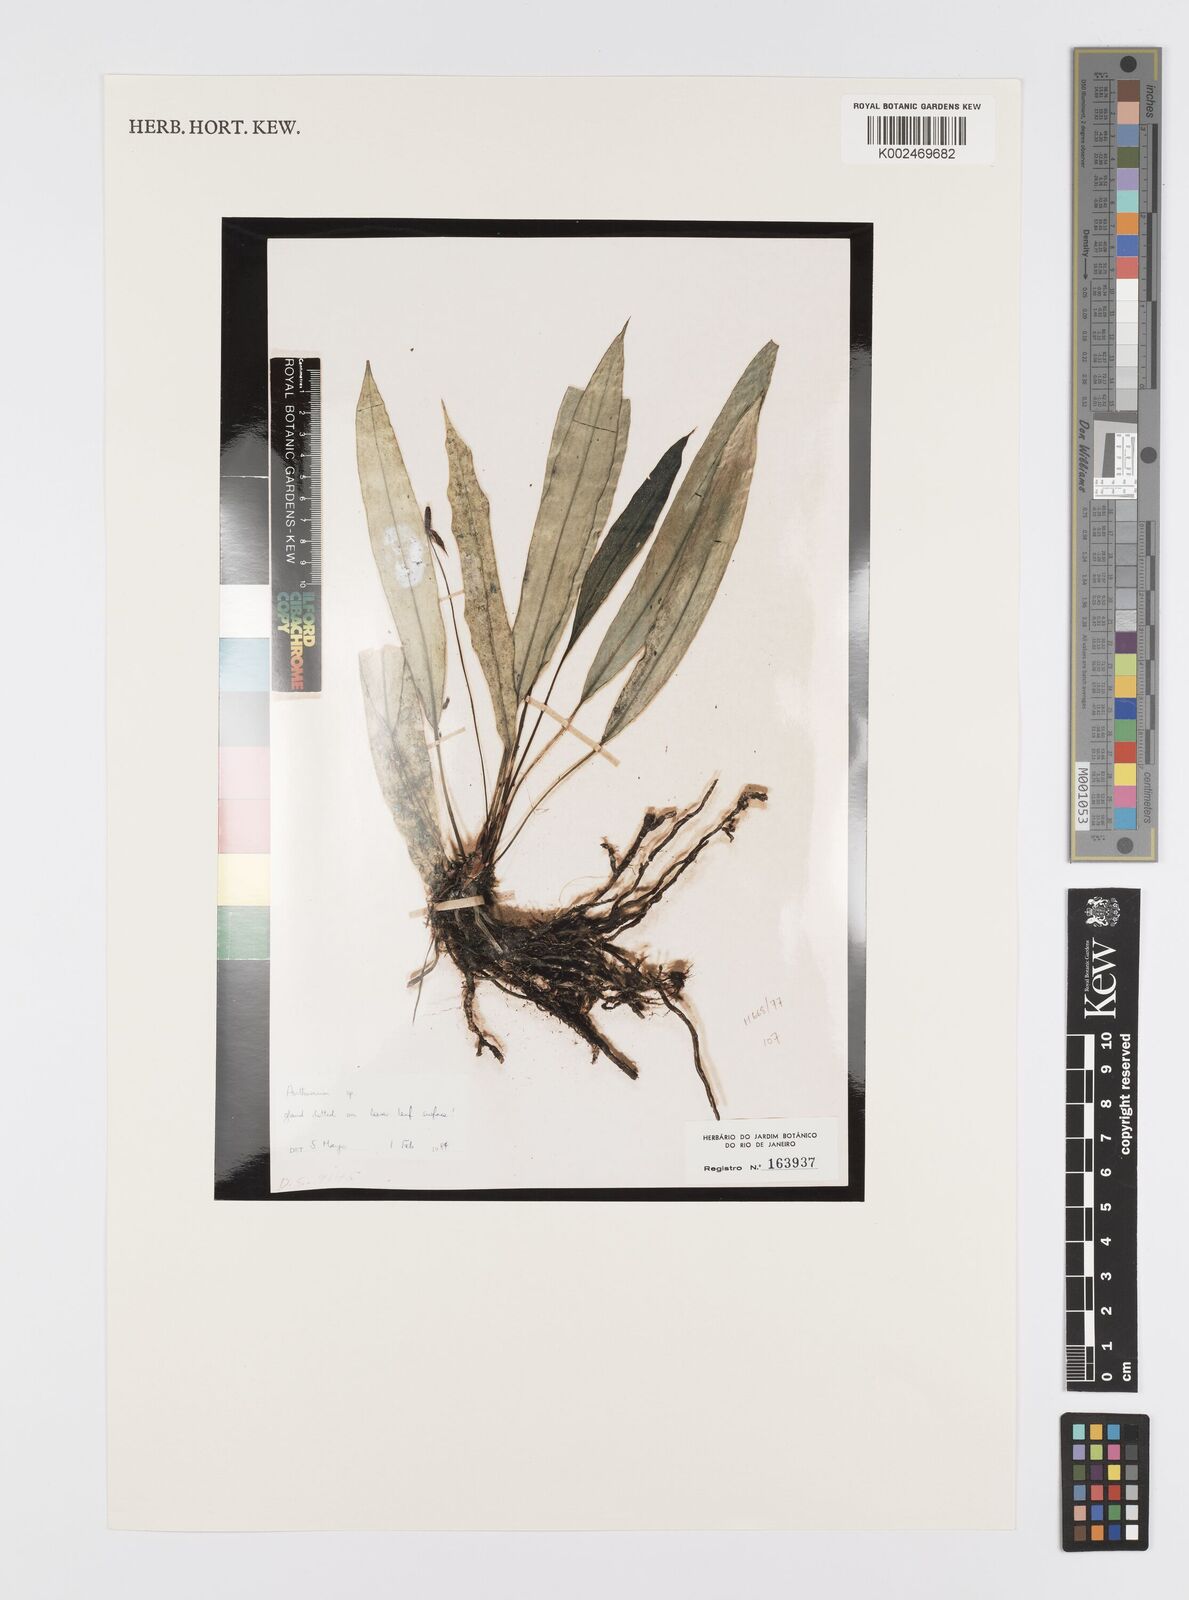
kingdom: Plantae
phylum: Tracheophyta
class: Liliopsida
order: Alismatales
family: Araceae
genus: Anthurium
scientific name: Anthurium
